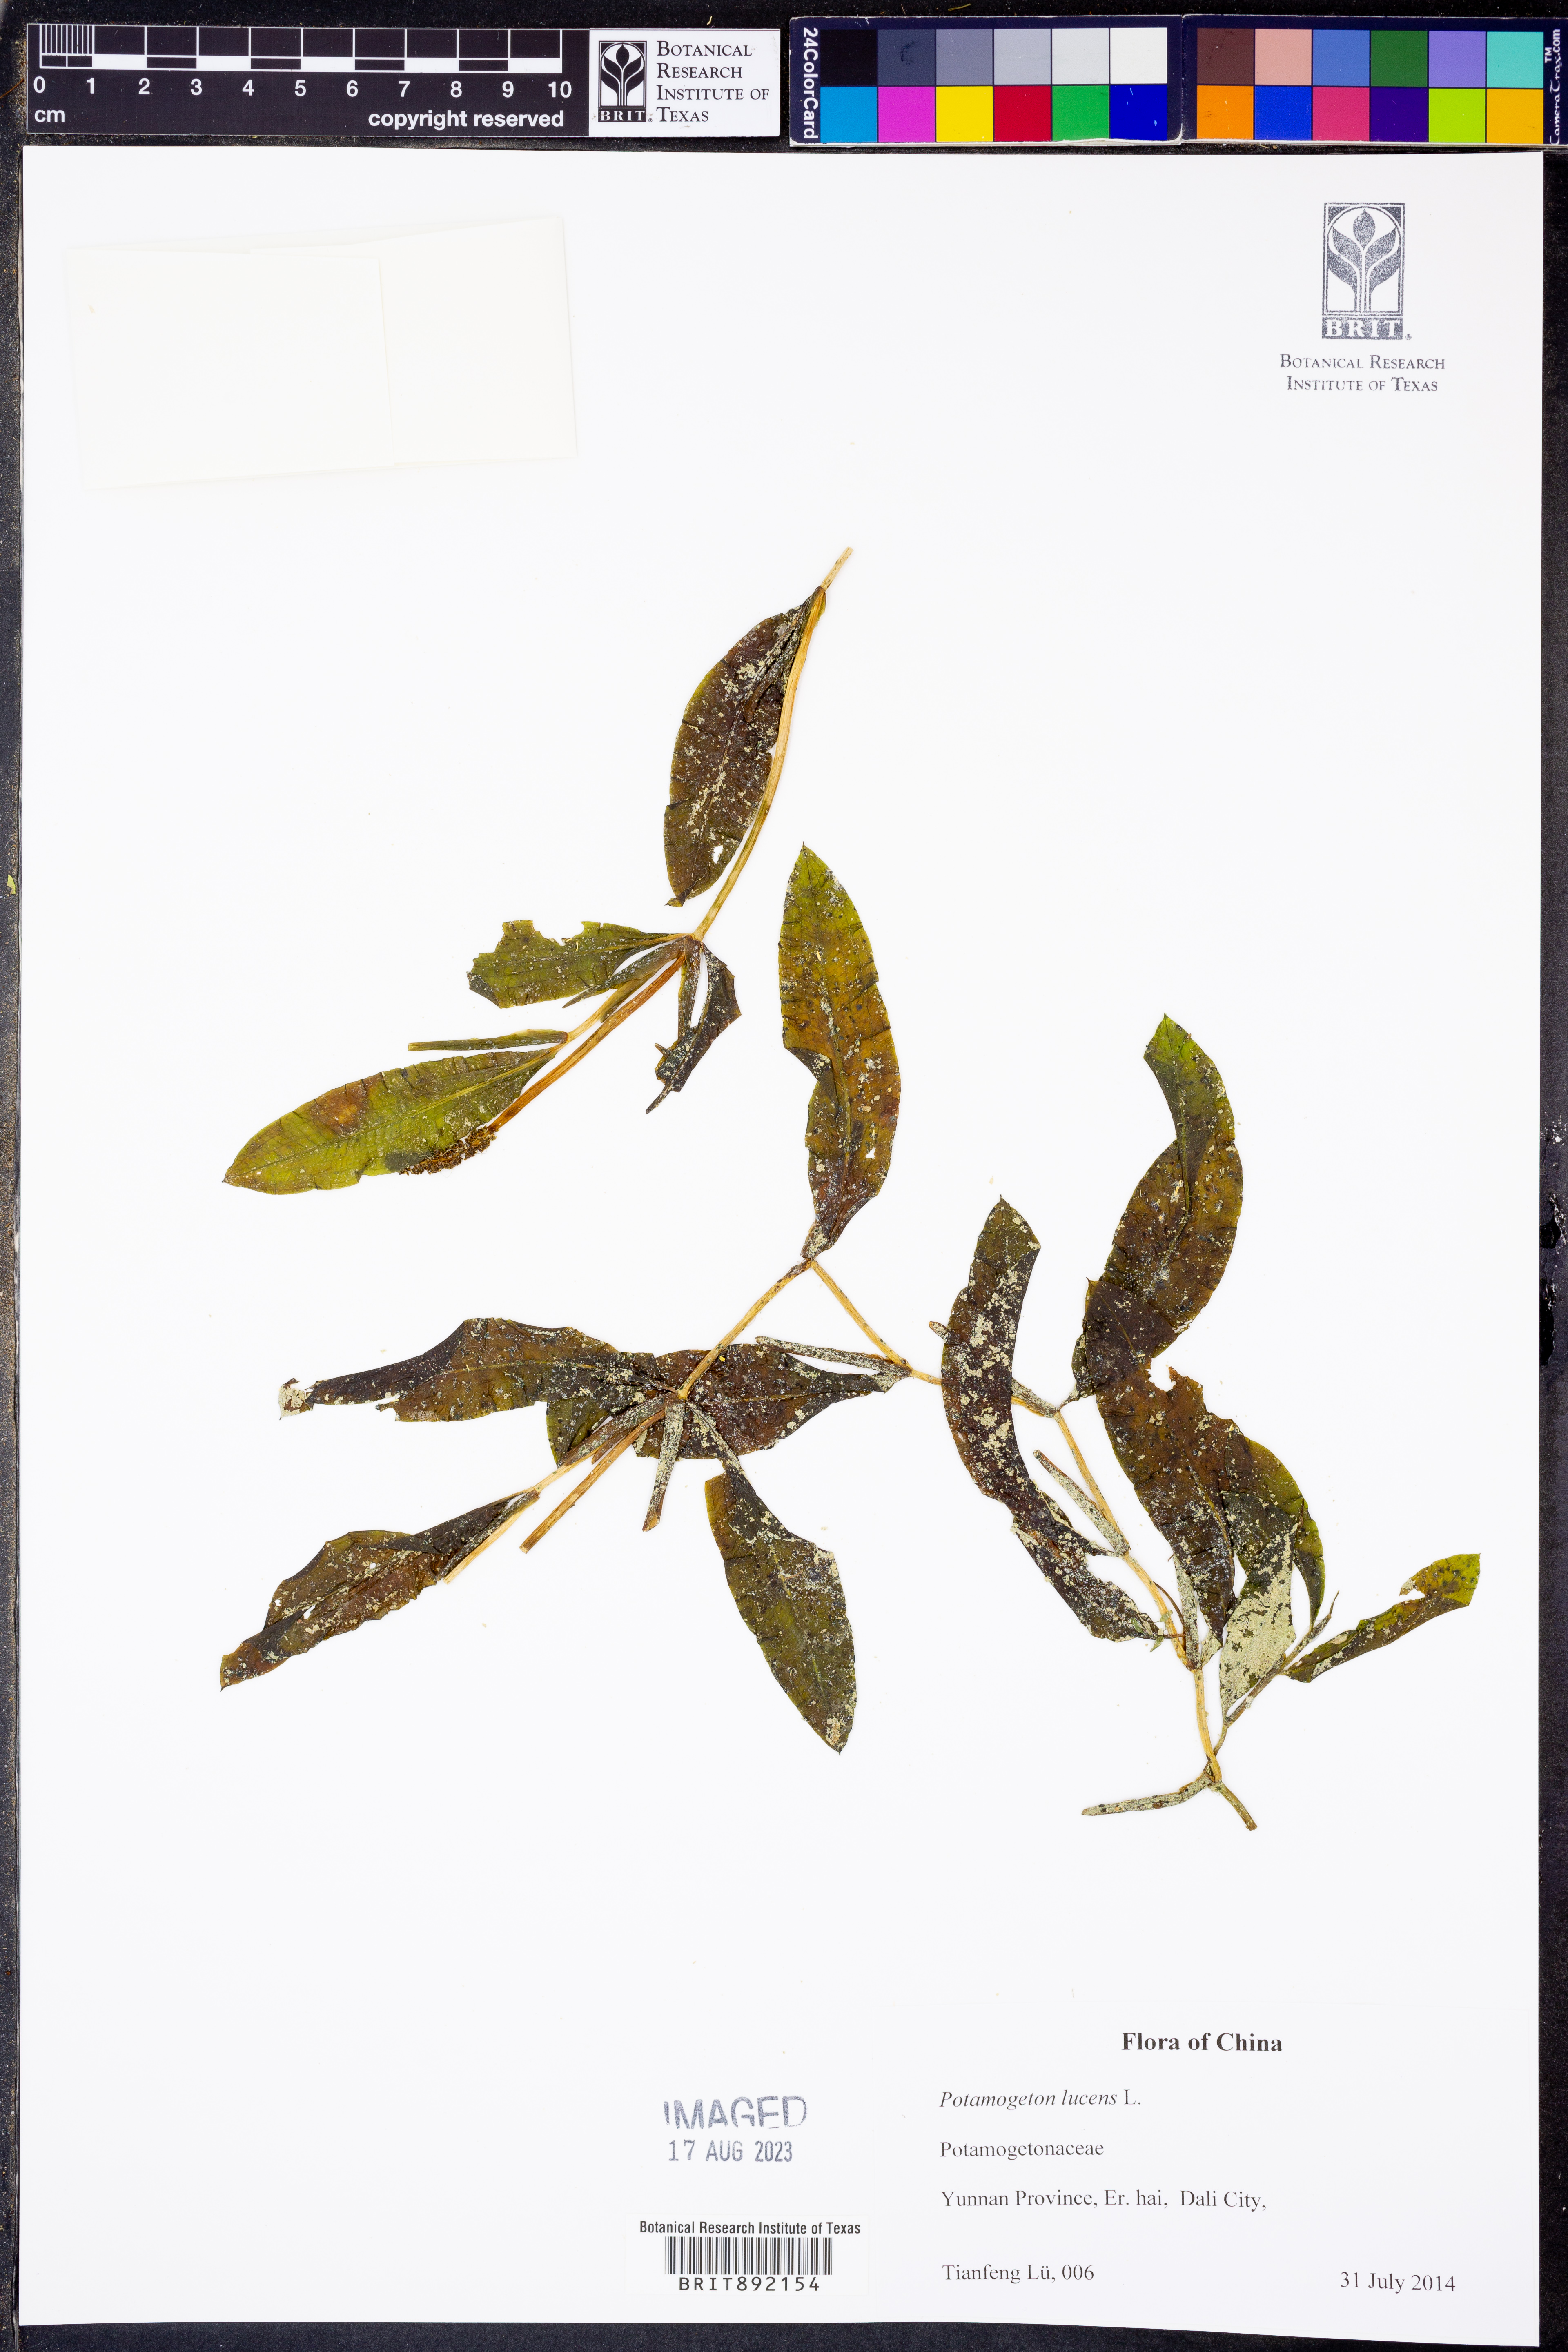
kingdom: Plantae
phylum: Tracheophyta
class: Liliopsida
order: Alismatales
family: Potamogetonaceae
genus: Potamogeton
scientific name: Potamogeton lucens
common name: Shining pondweed
